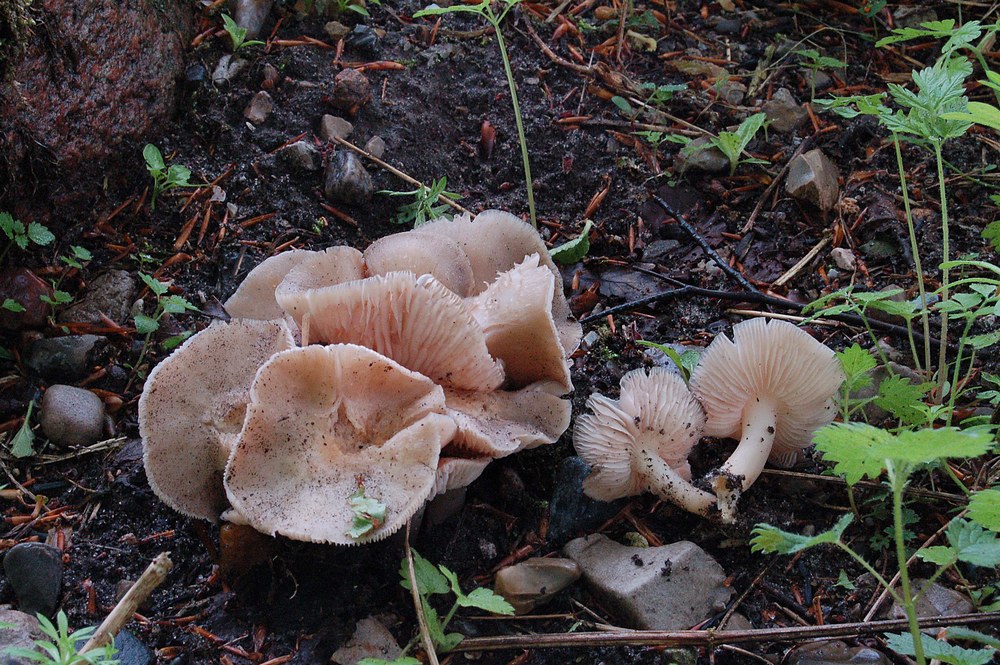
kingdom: Fungi
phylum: Basidiomycota
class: Agaricomycetes
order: Agaricales
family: Entolomataceae
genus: Entoloma
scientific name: Entoloma clypeatum
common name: flammet rødblad
